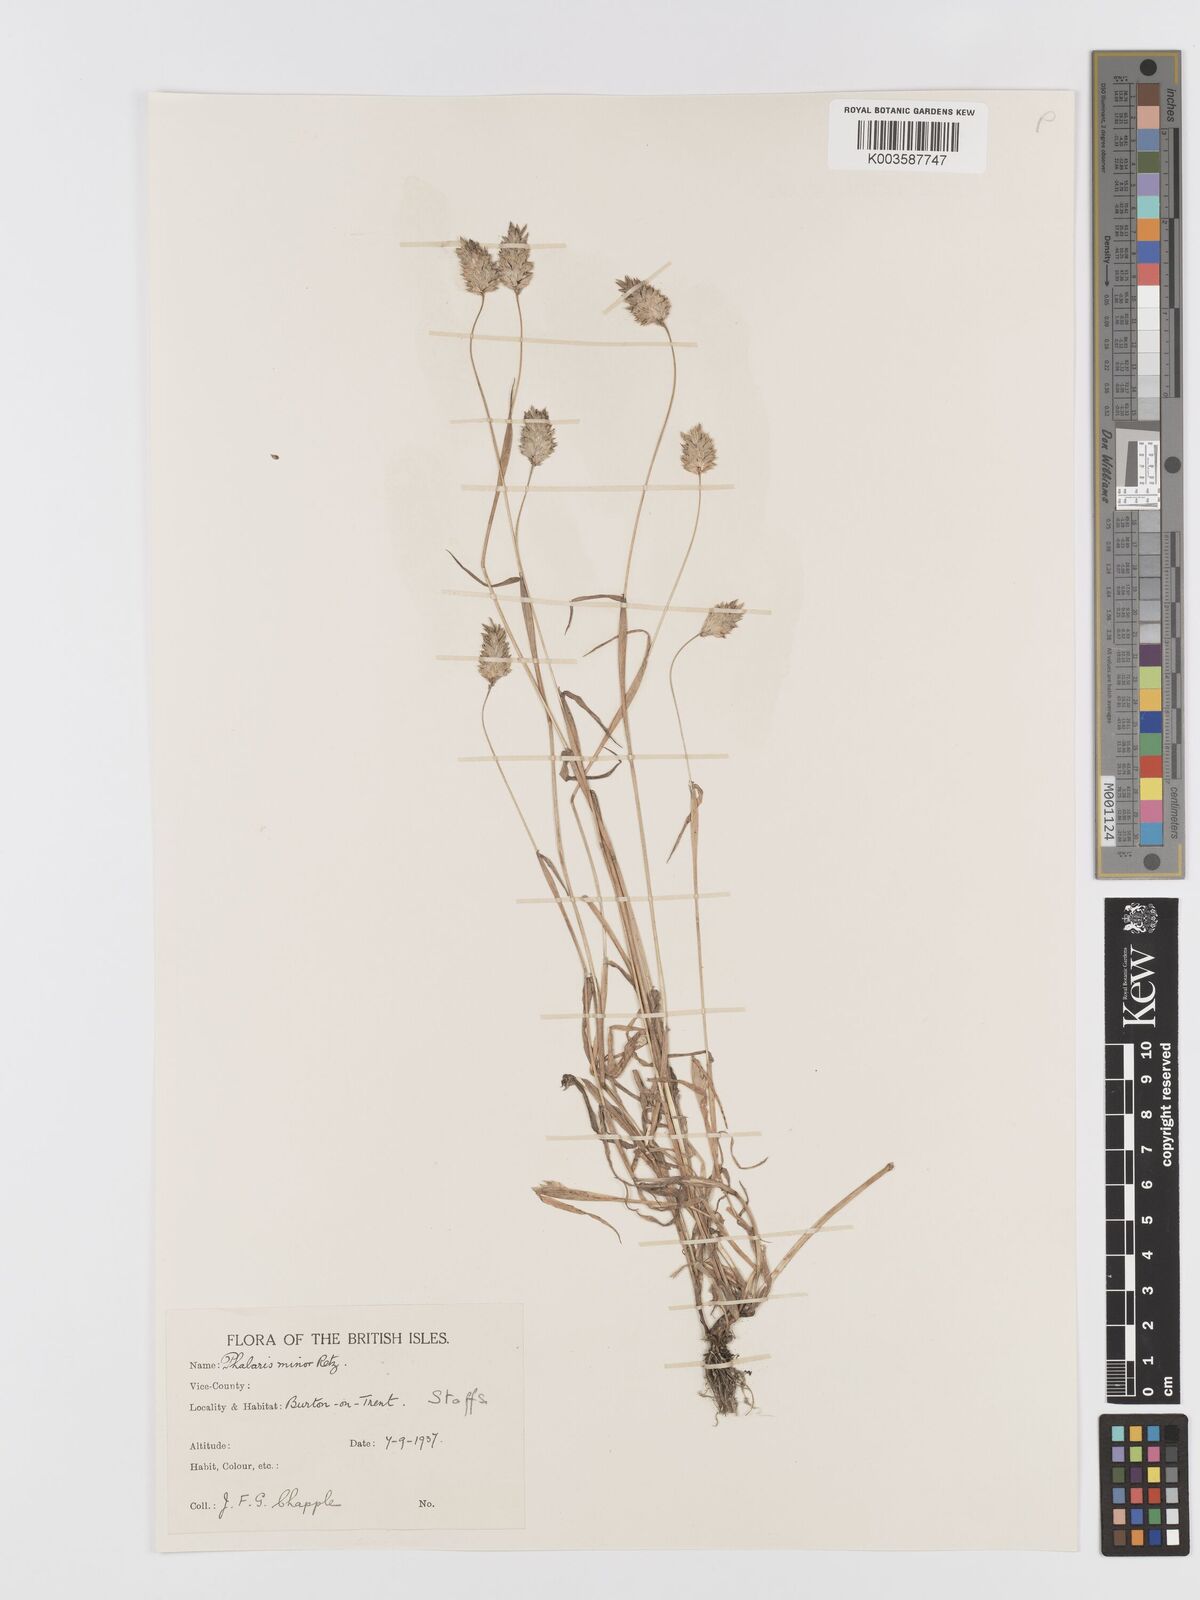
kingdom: Plantae
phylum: Tracheophyta
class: Liliopsida
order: Poales
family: Poaceae
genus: Phalaris
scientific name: Phalaris minor
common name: Littleseed canarygrass
